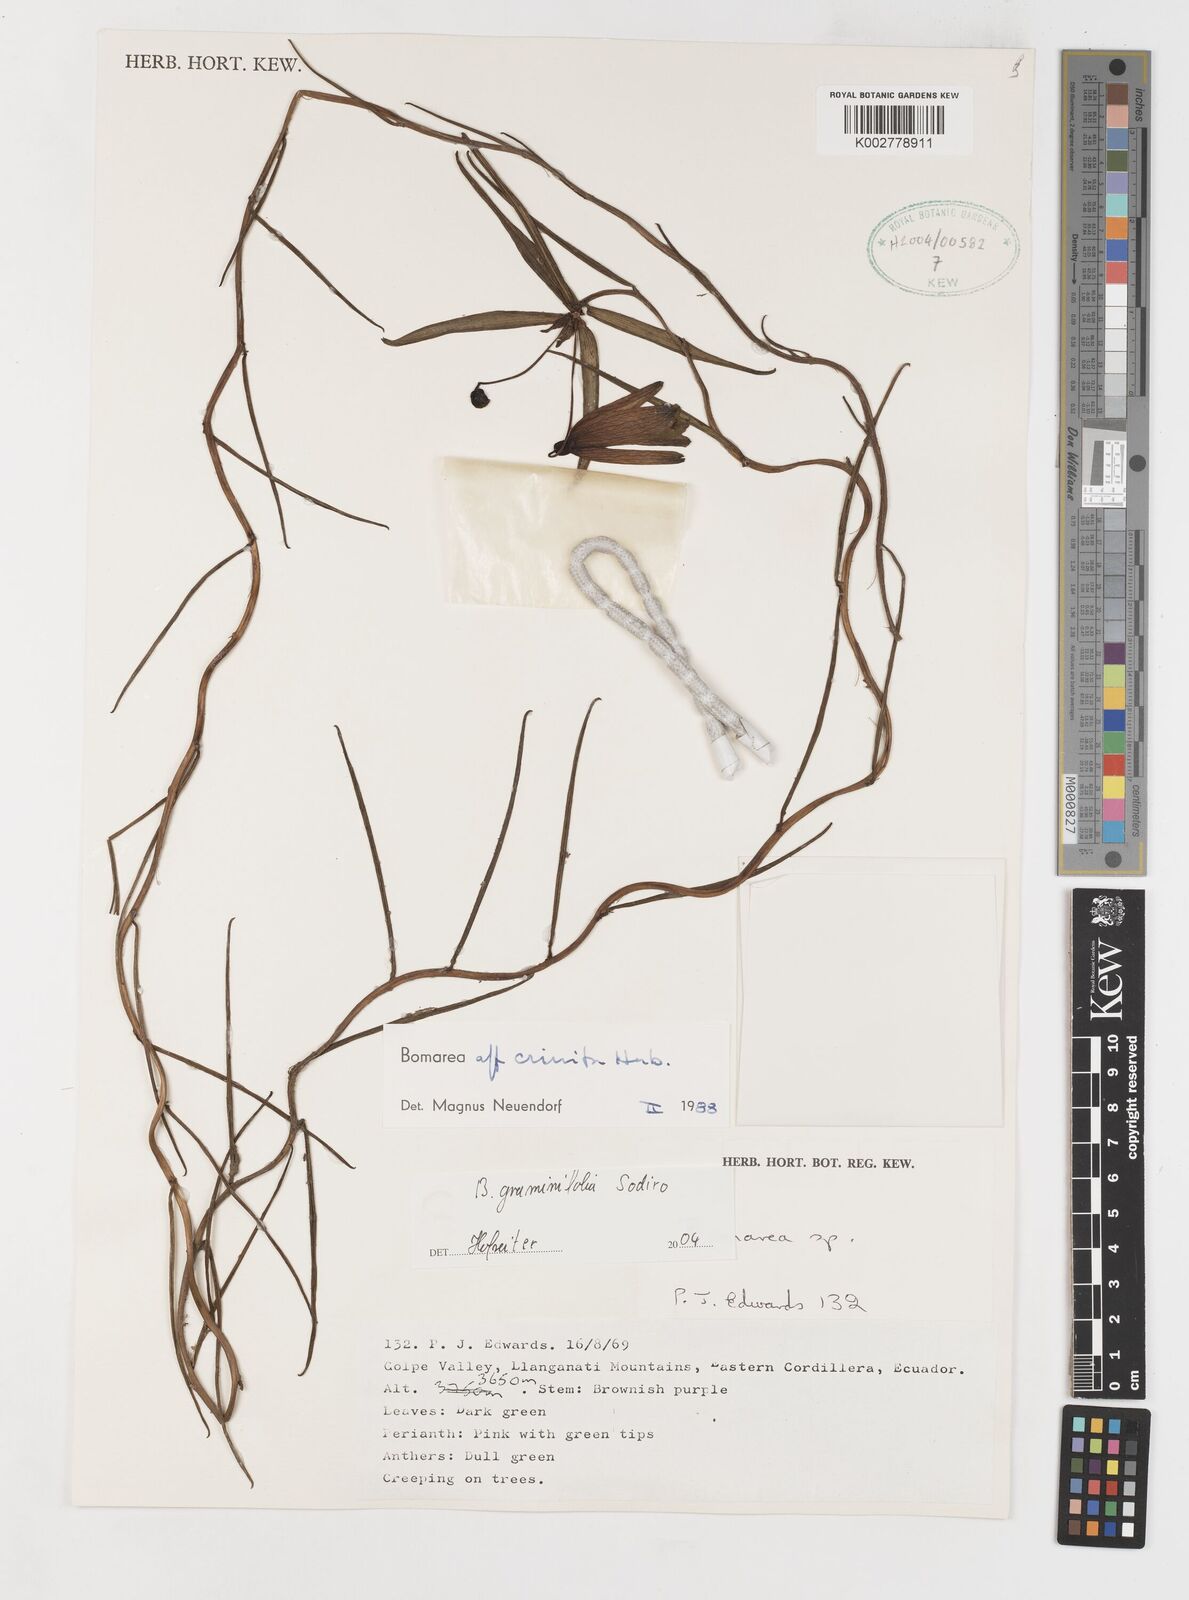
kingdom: Plantae
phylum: Tracheophyta
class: Liliopsida
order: Liliales
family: Alstroemeriaceae
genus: Bomarea
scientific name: Bomarea graminifolia
